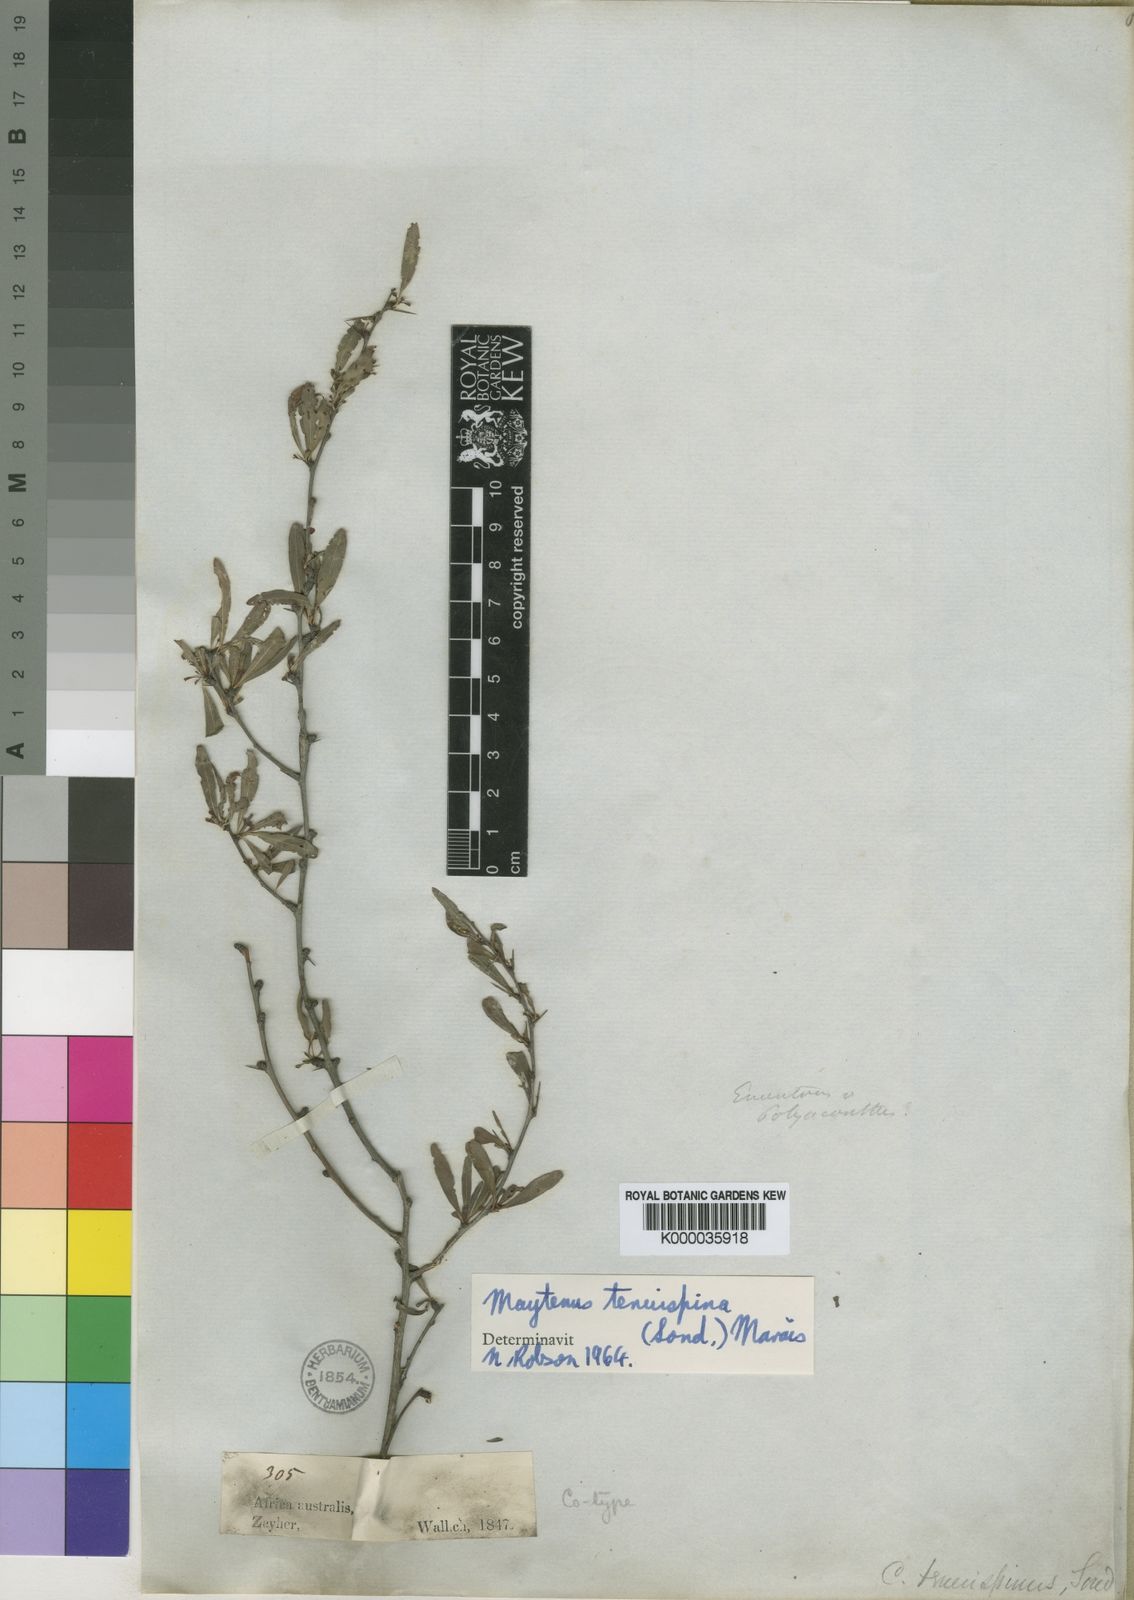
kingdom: Plantae
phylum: Tracheophyta
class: Magnoliopsida
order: Celastrales
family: Celastraceae
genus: Gymnosporia
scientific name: Gymnosporia tenuispina
